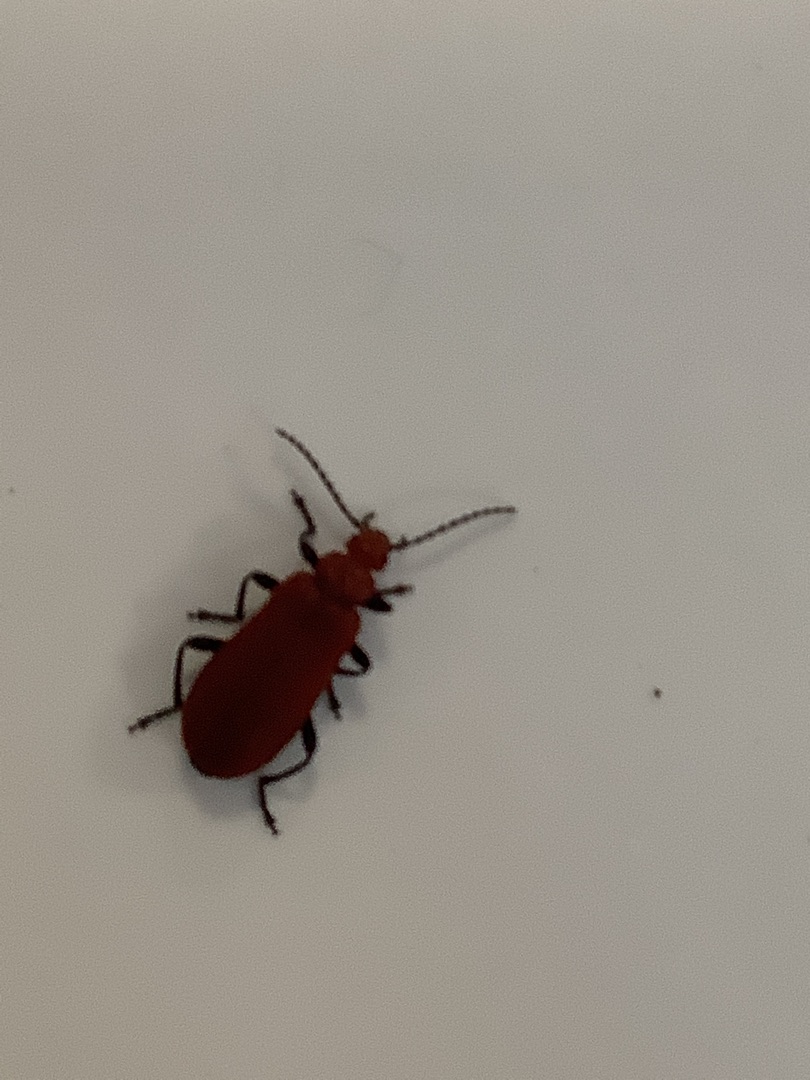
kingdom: Animalia
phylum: Arthropoda
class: Insecta
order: Coleoptera
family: Pyrochroidae
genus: Pyrochroa
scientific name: Pyrochroa serraticornis
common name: Rødhovedet kardinalbille
